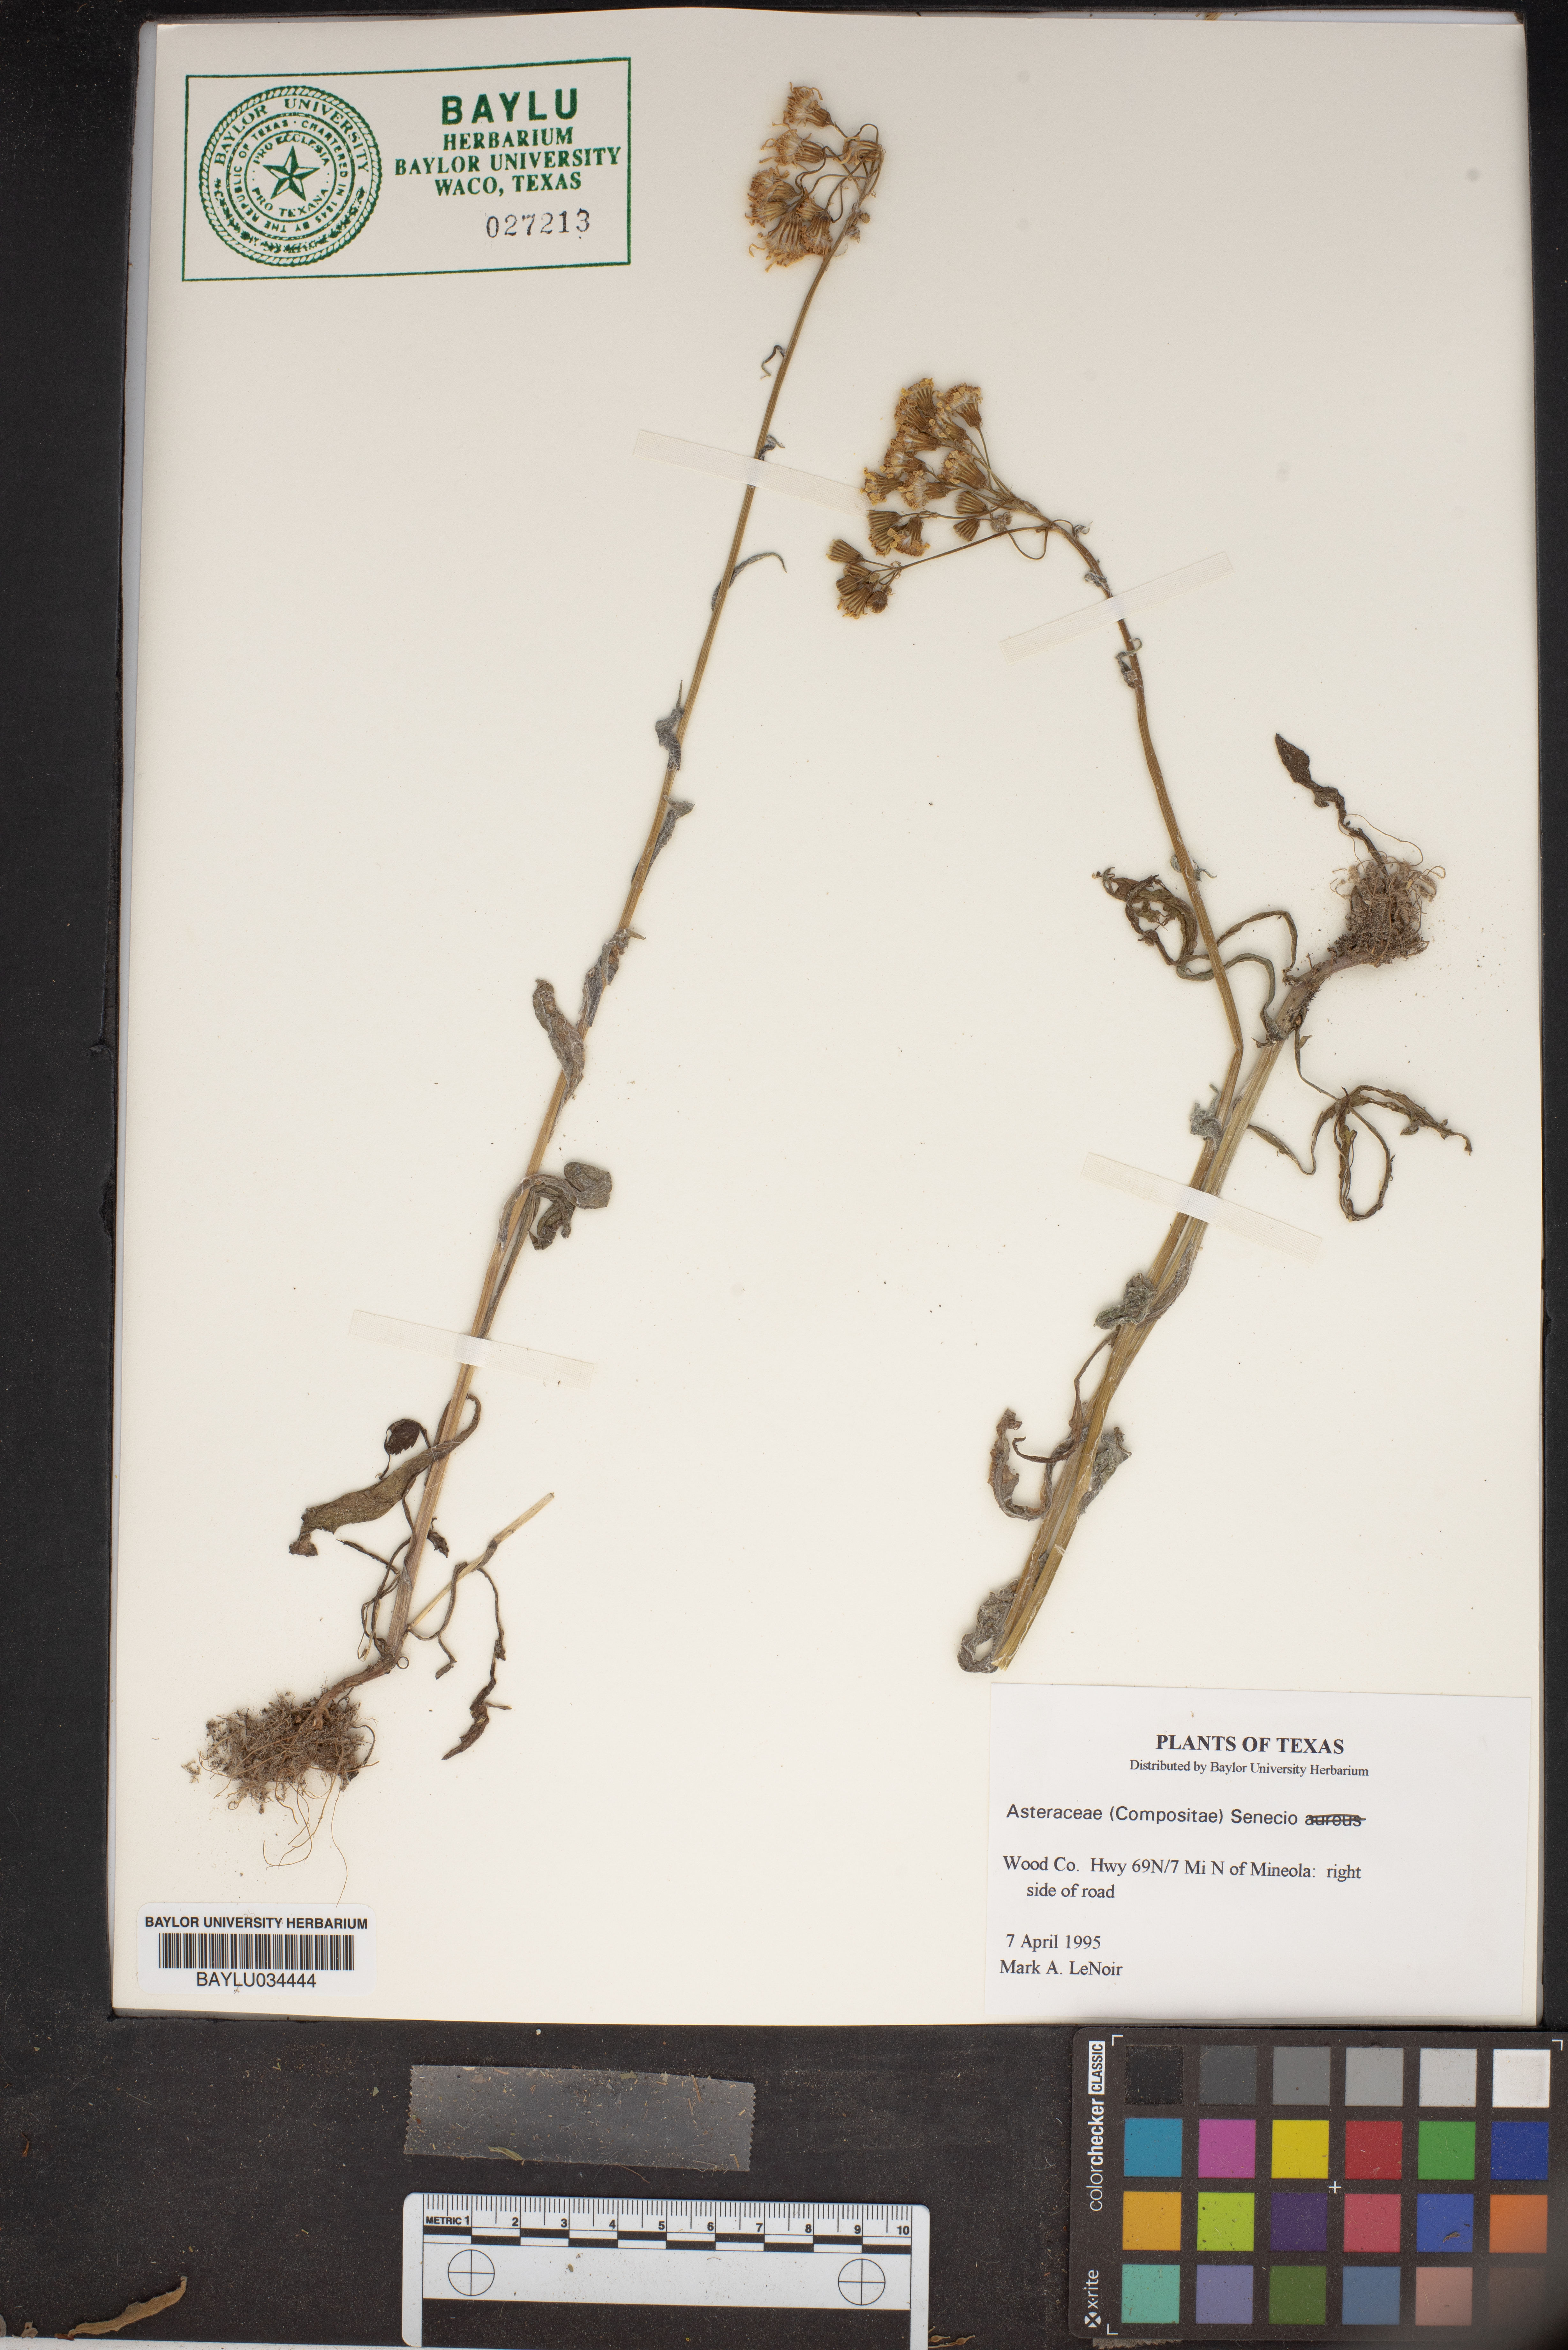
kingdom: Plantae
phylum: Tracheophyta
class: Magnoliopsida
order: Asterales
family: Asteraceae
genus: Senecio
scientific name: Senecio
